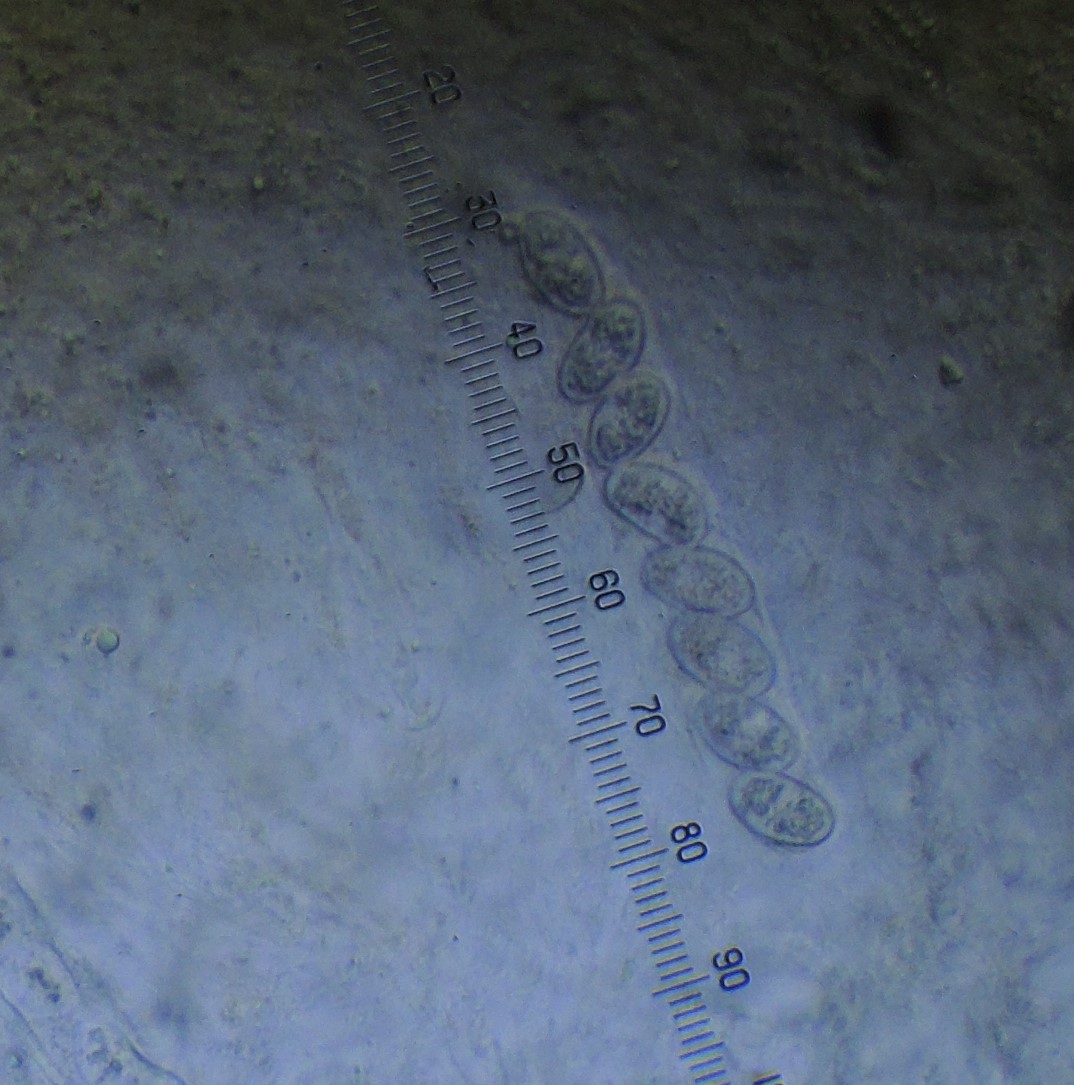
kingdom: Fungi
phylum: Ascomycota
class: Pezizomycetes
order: Pezizales
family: Pyronemataceae
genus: Miladina
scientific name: Miladina lecithina
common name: vandbæger
